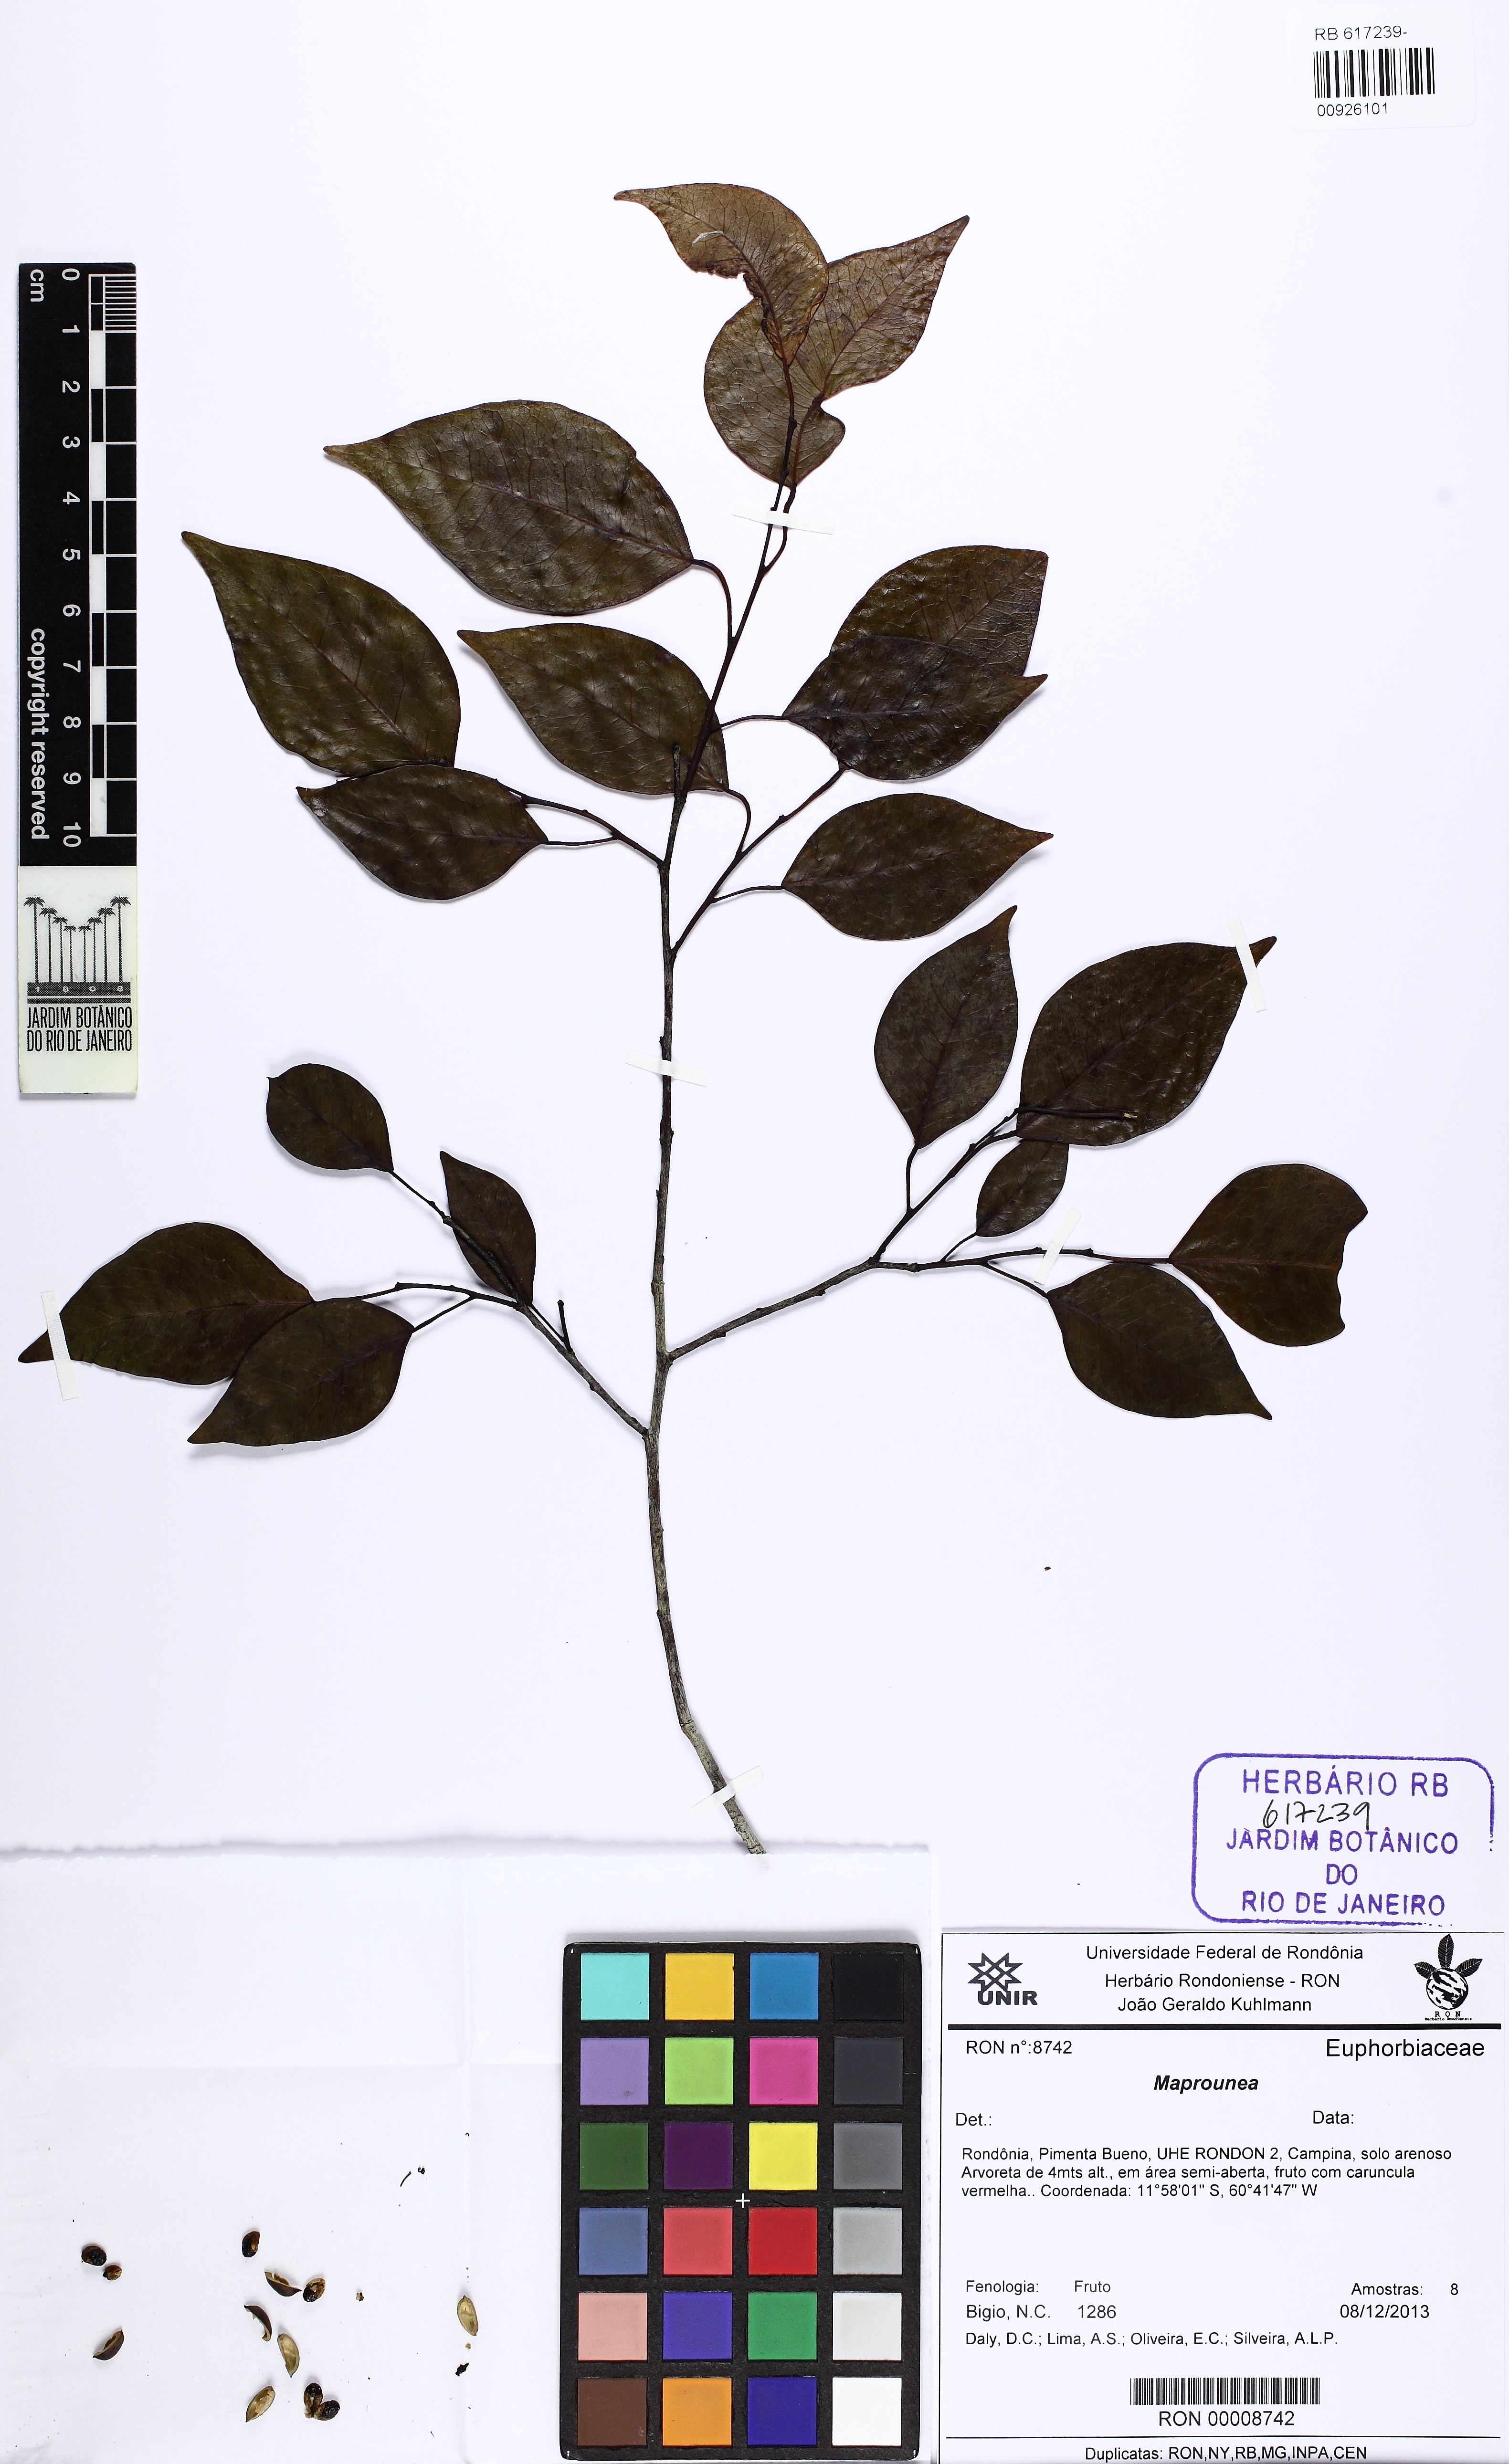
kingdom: Plantae
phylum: Tracheophyta
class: Magnoliopsida
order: Malpighiales
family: Euphorbiaceae
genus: Maprounea
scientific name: Maprounea
